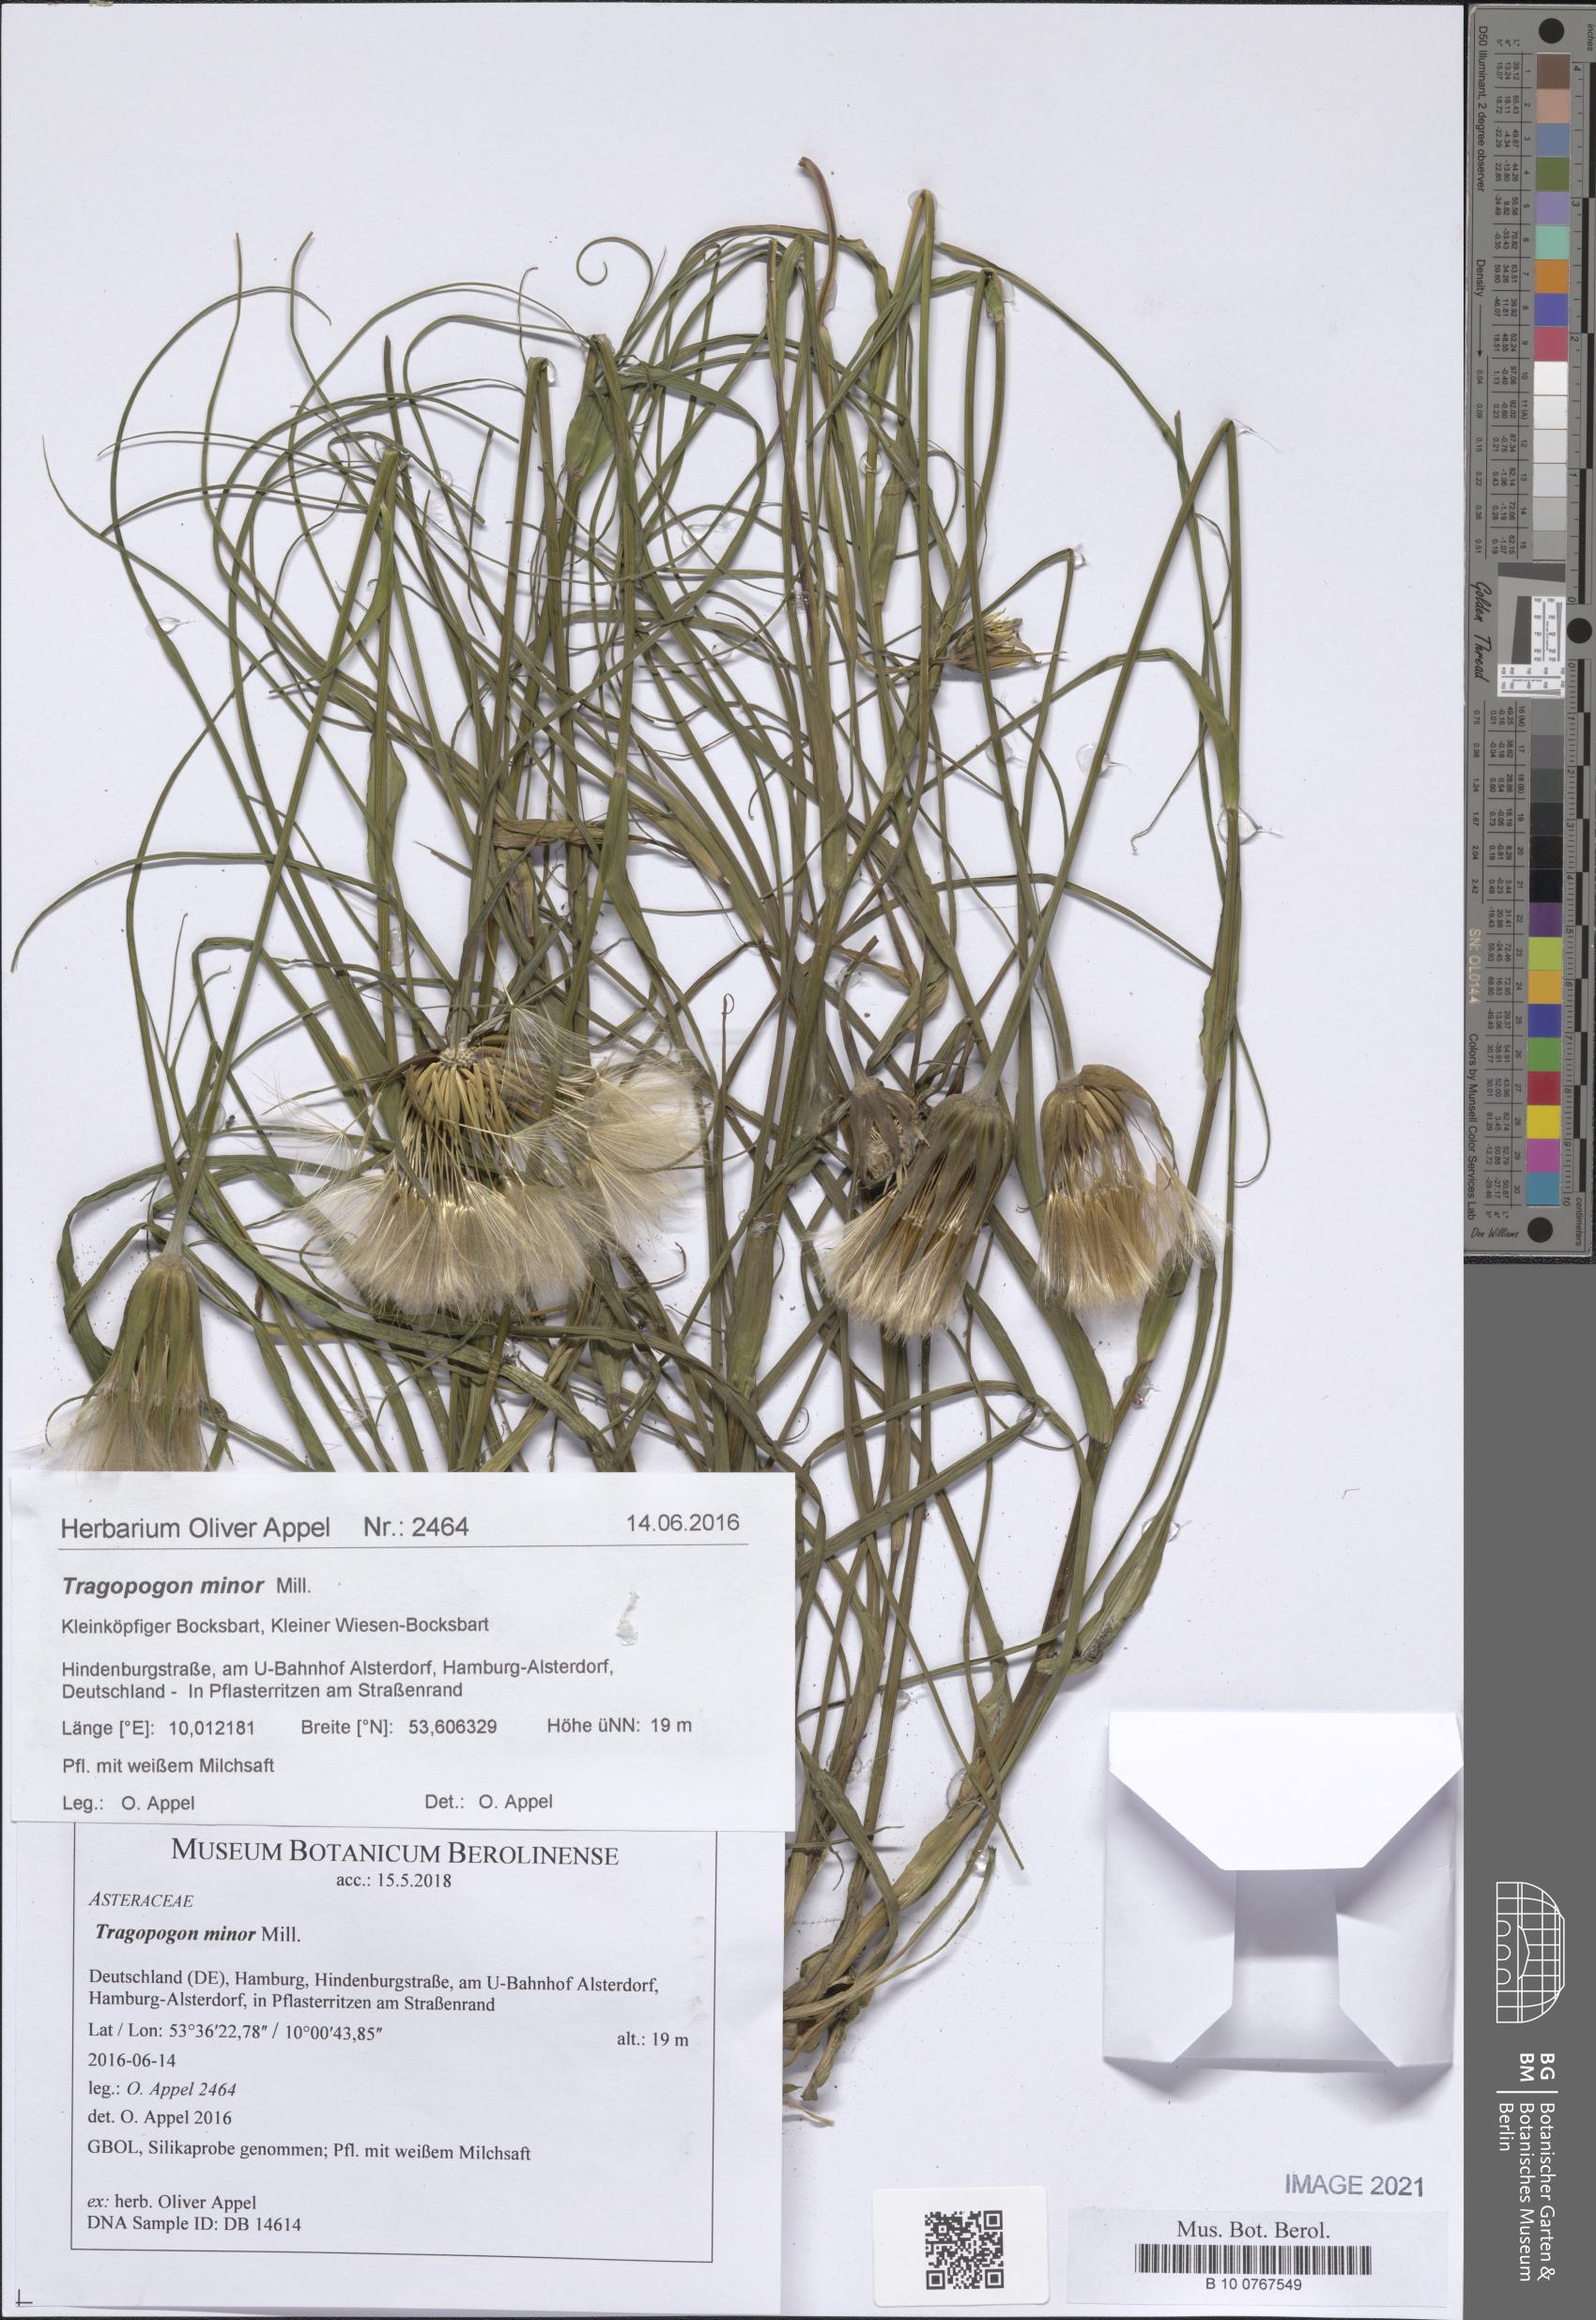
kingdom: Plantae
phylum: Tracheophyta
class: Magnoliopsida
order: Asterales
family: Asteraceae
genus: Tragopogon
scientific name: Tragopogon minor
